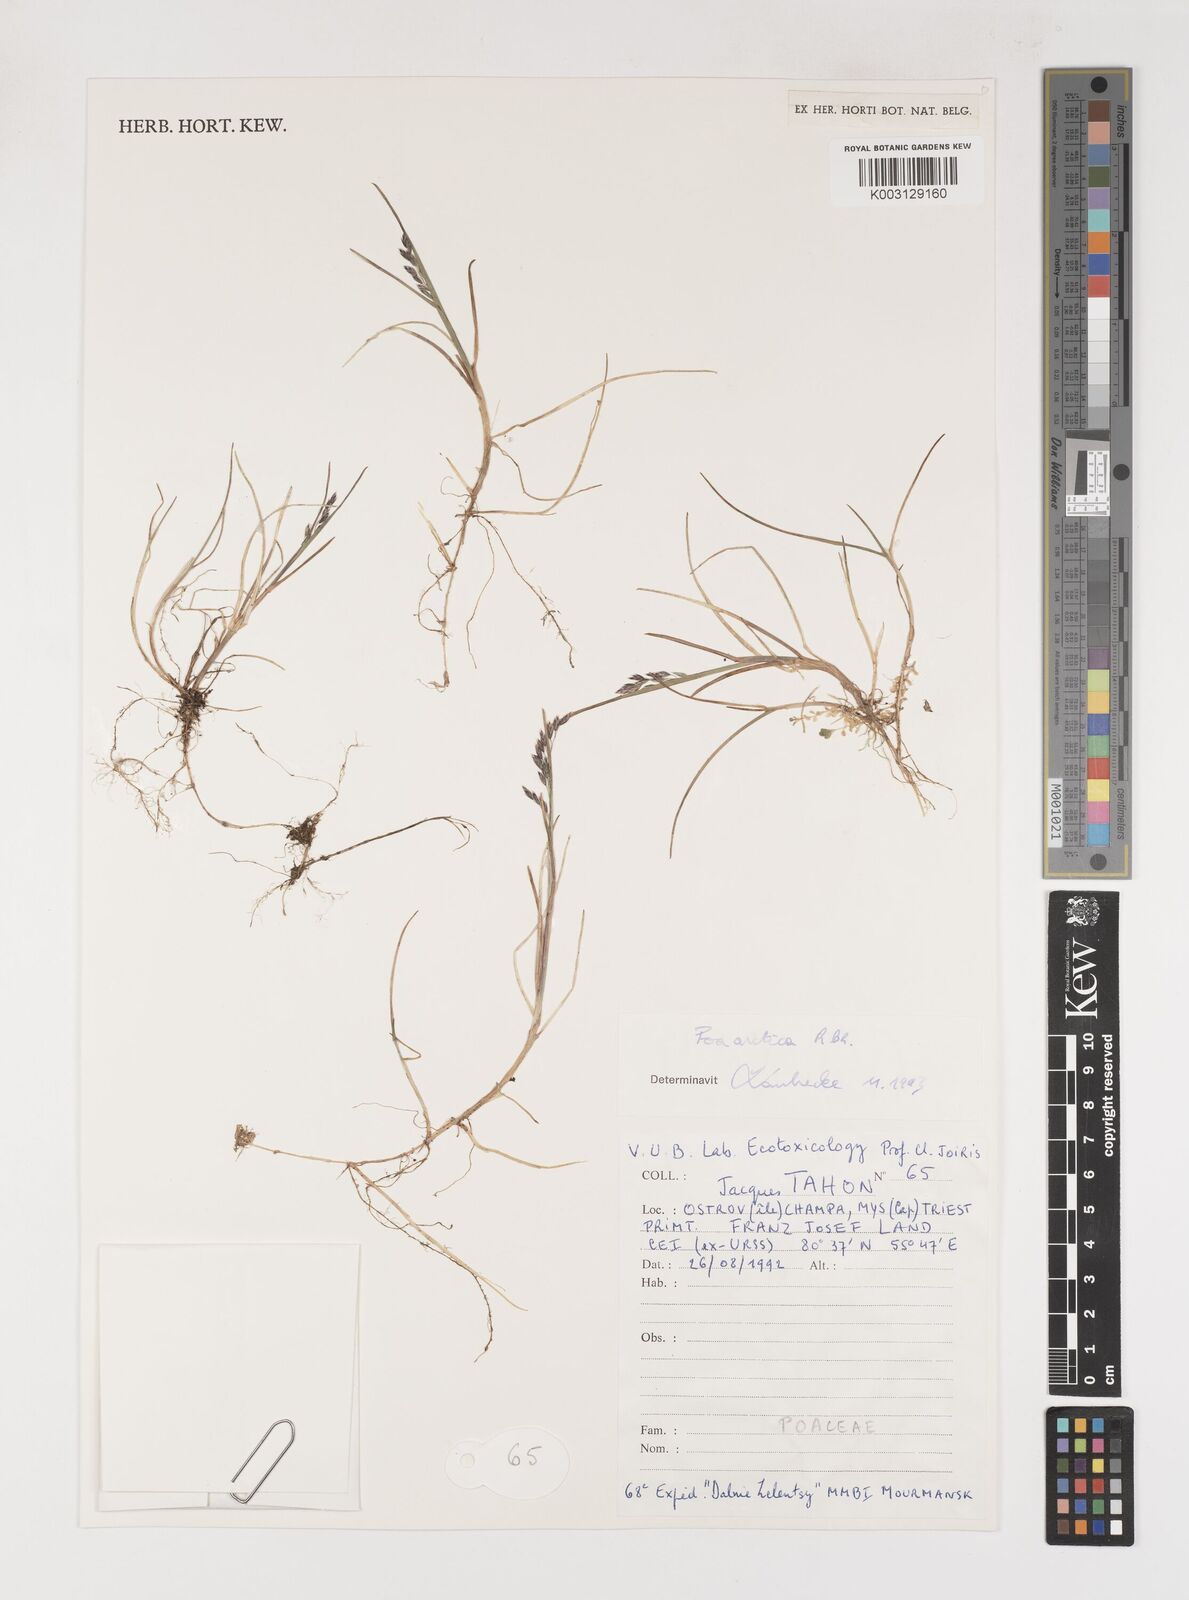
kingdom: Plantae
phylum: Tracheophyta
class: Liliopsida
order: Poales
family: Poaceae
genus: Poa
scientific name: Poa arctica
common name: Arctic bluegrass
